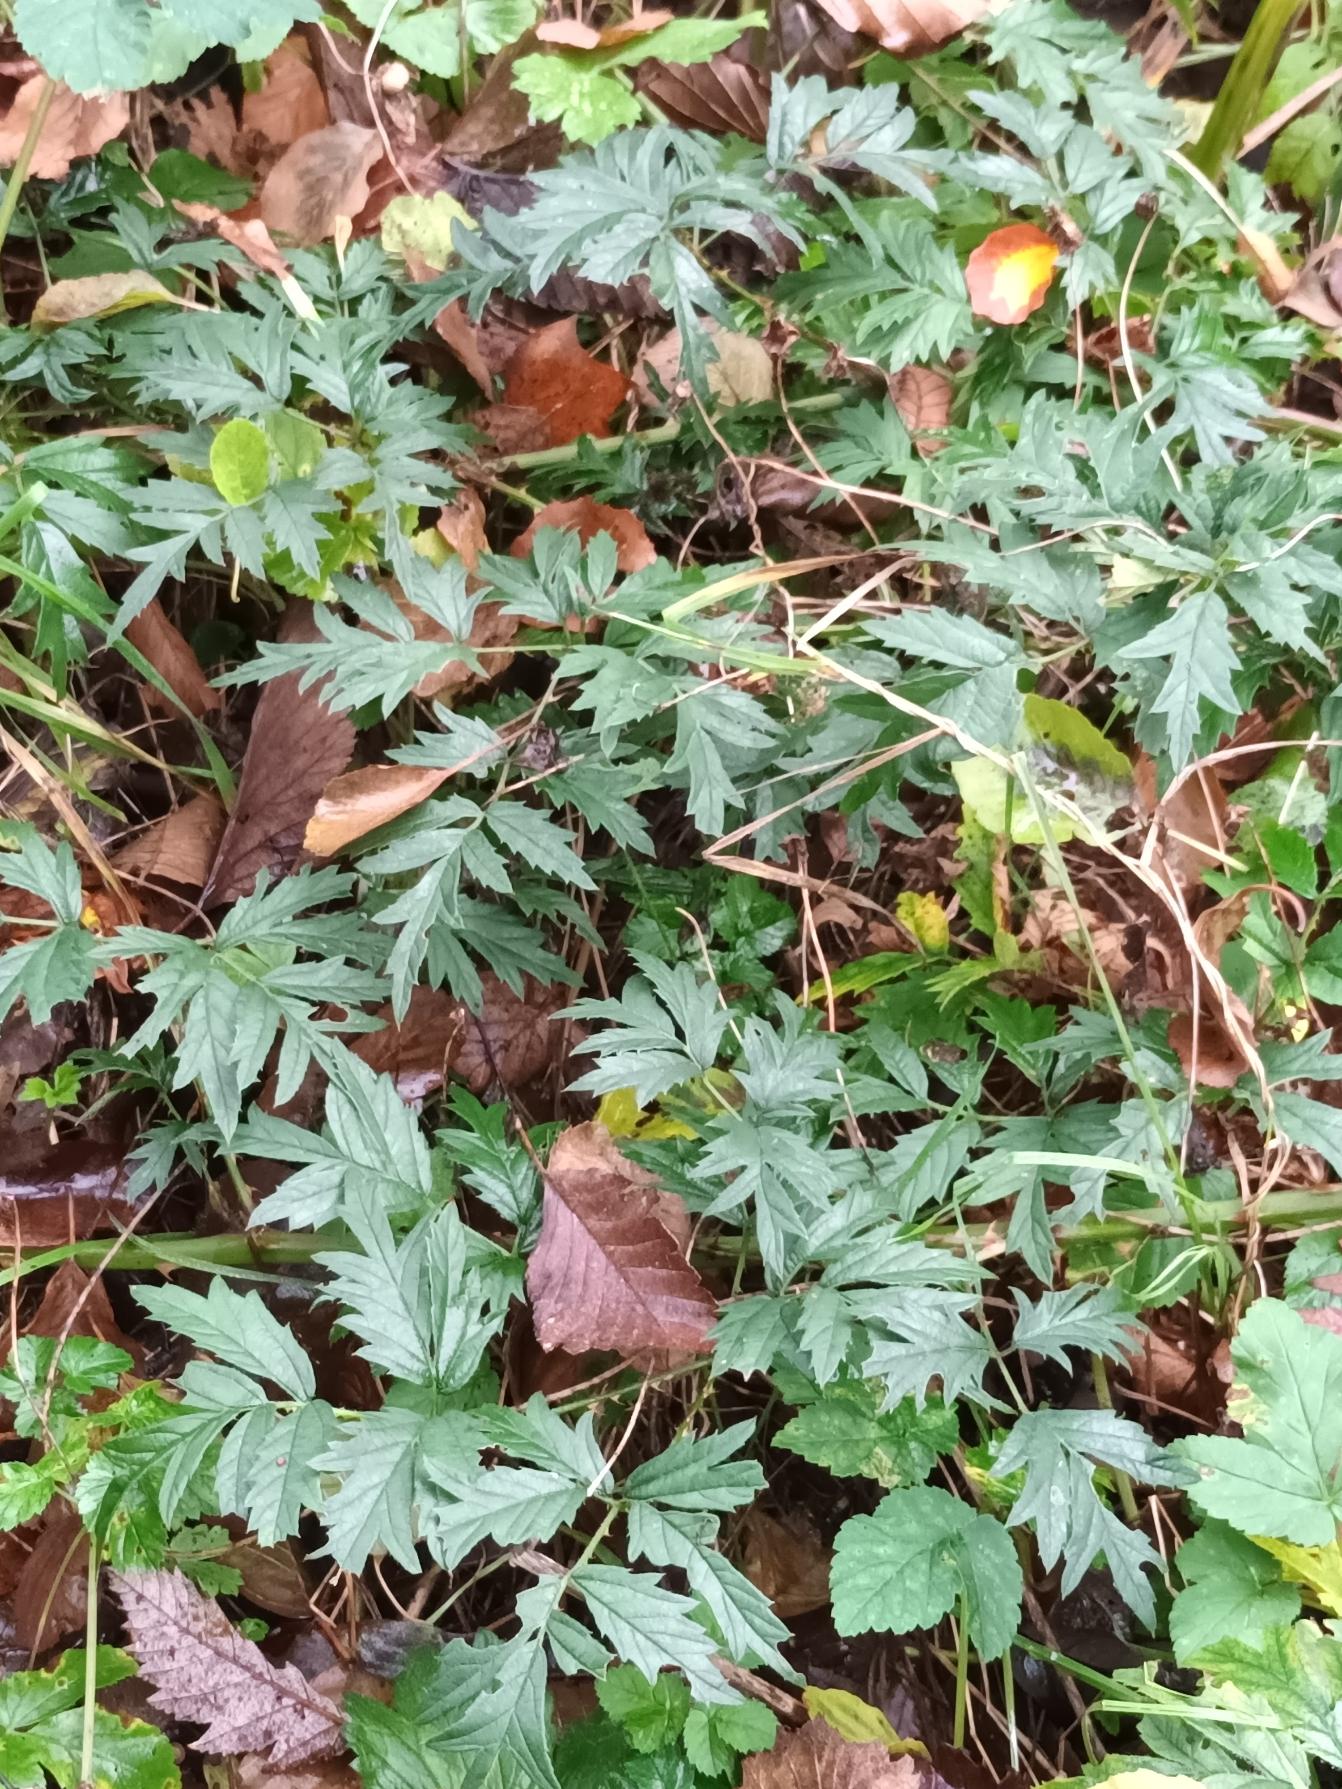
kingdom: Plantae
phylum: Tracheophyta
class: Magnoliopsida
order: Rosales
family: Rosaceae
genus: Rubus
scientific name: Rubus laciniatus
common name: Fliget brombær
